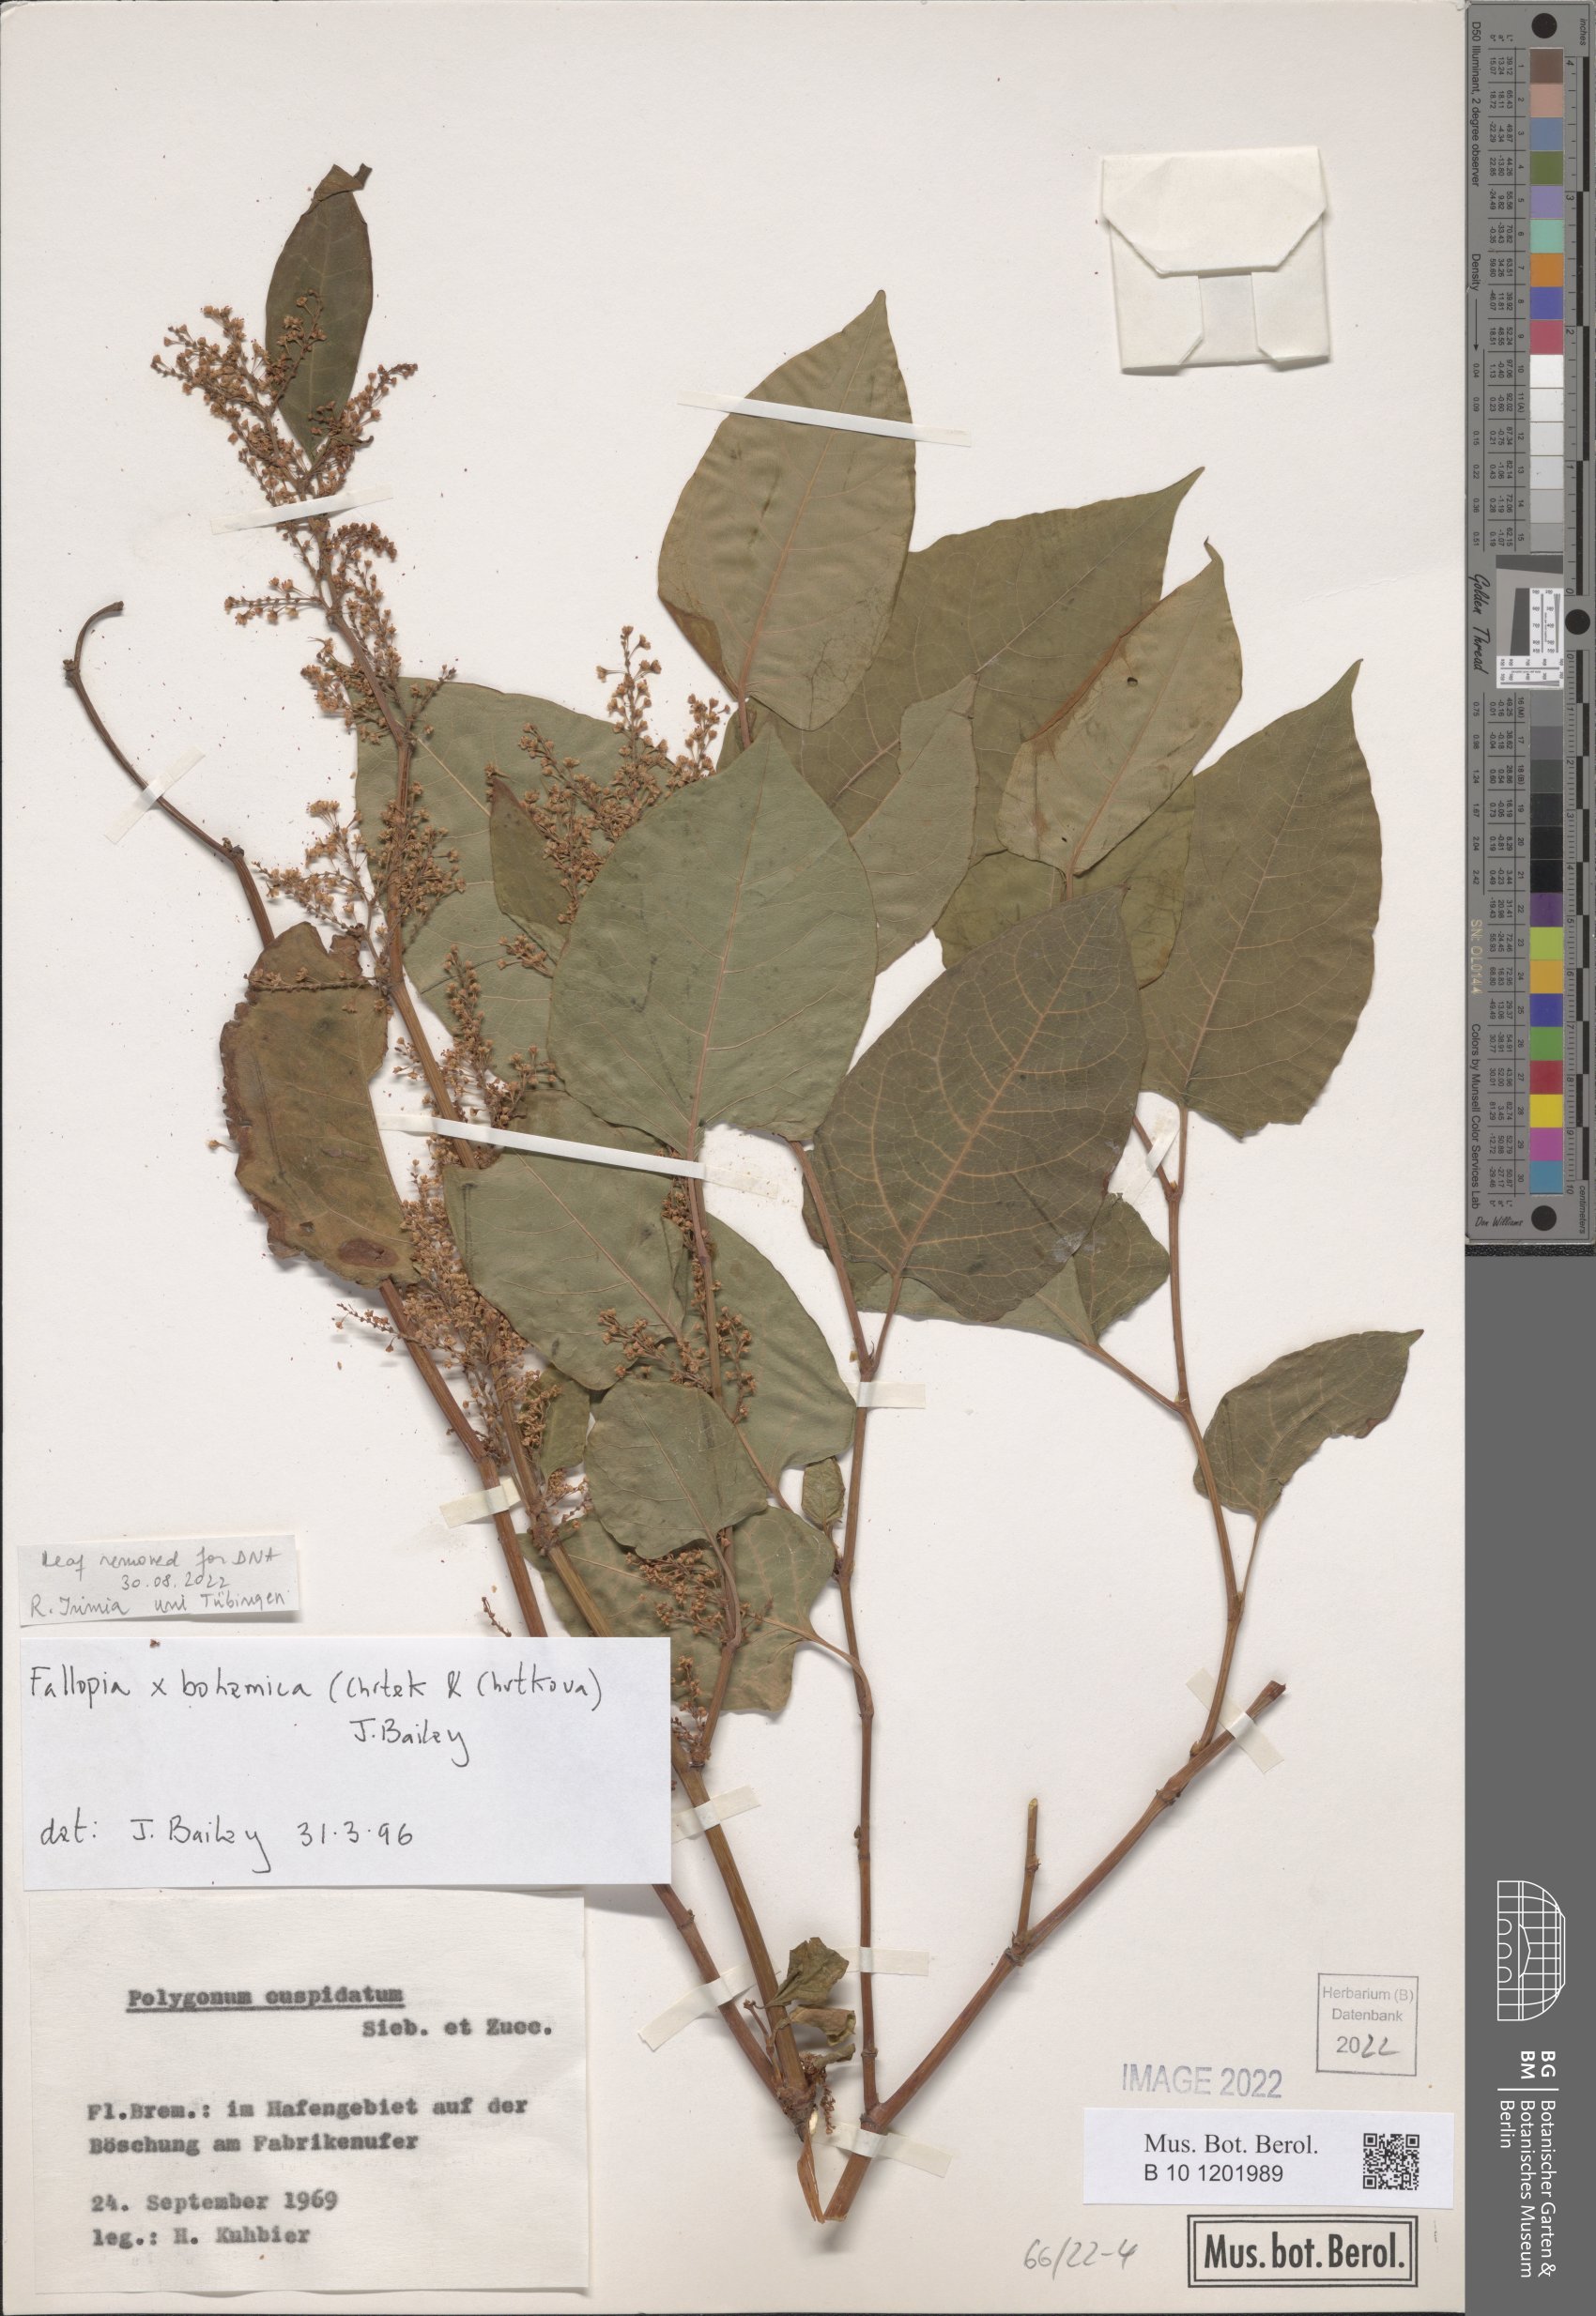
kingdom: Plantae
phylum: Tracheophyta
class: Magnoliopsida
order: Caryophyllales
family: Polygonaceae
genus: Reynoutria
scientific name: Reynoutria bohemica
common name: Bohemian knotweed
